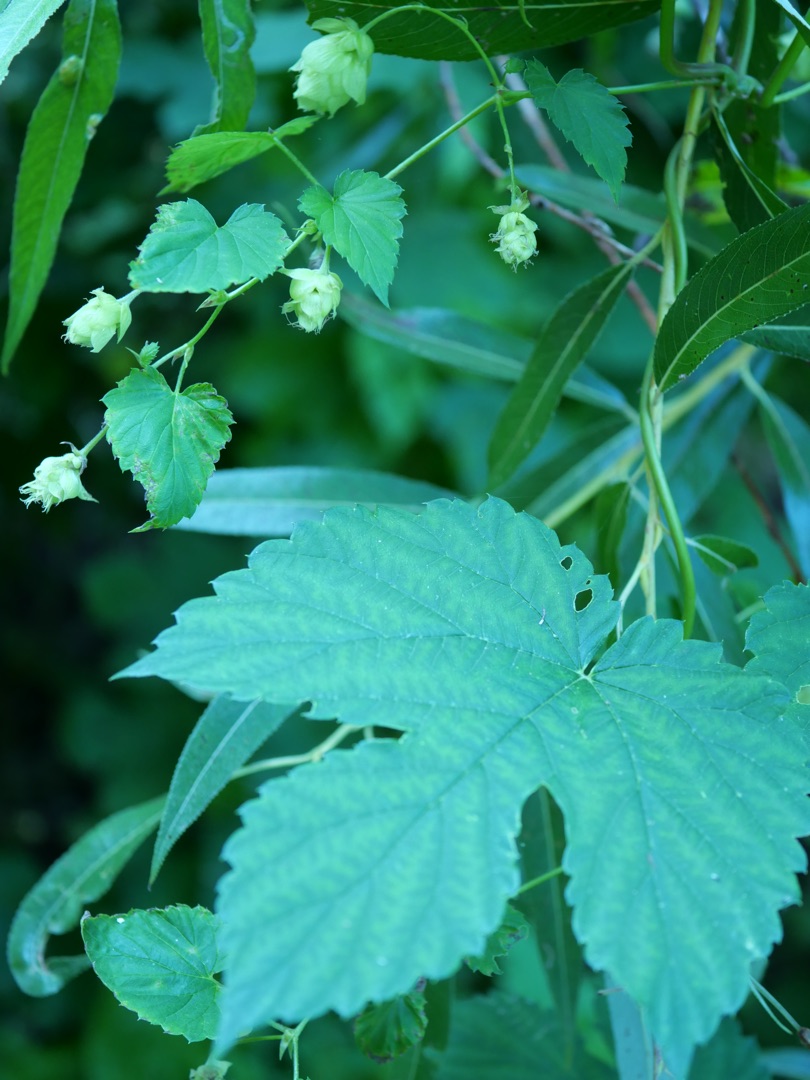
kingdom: Plantae
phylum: Tracheophyta
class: Magnoliopsida
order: Rosales
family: Cannabaceae
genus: Humulus
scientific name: Humulus lupulus
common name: Humle
